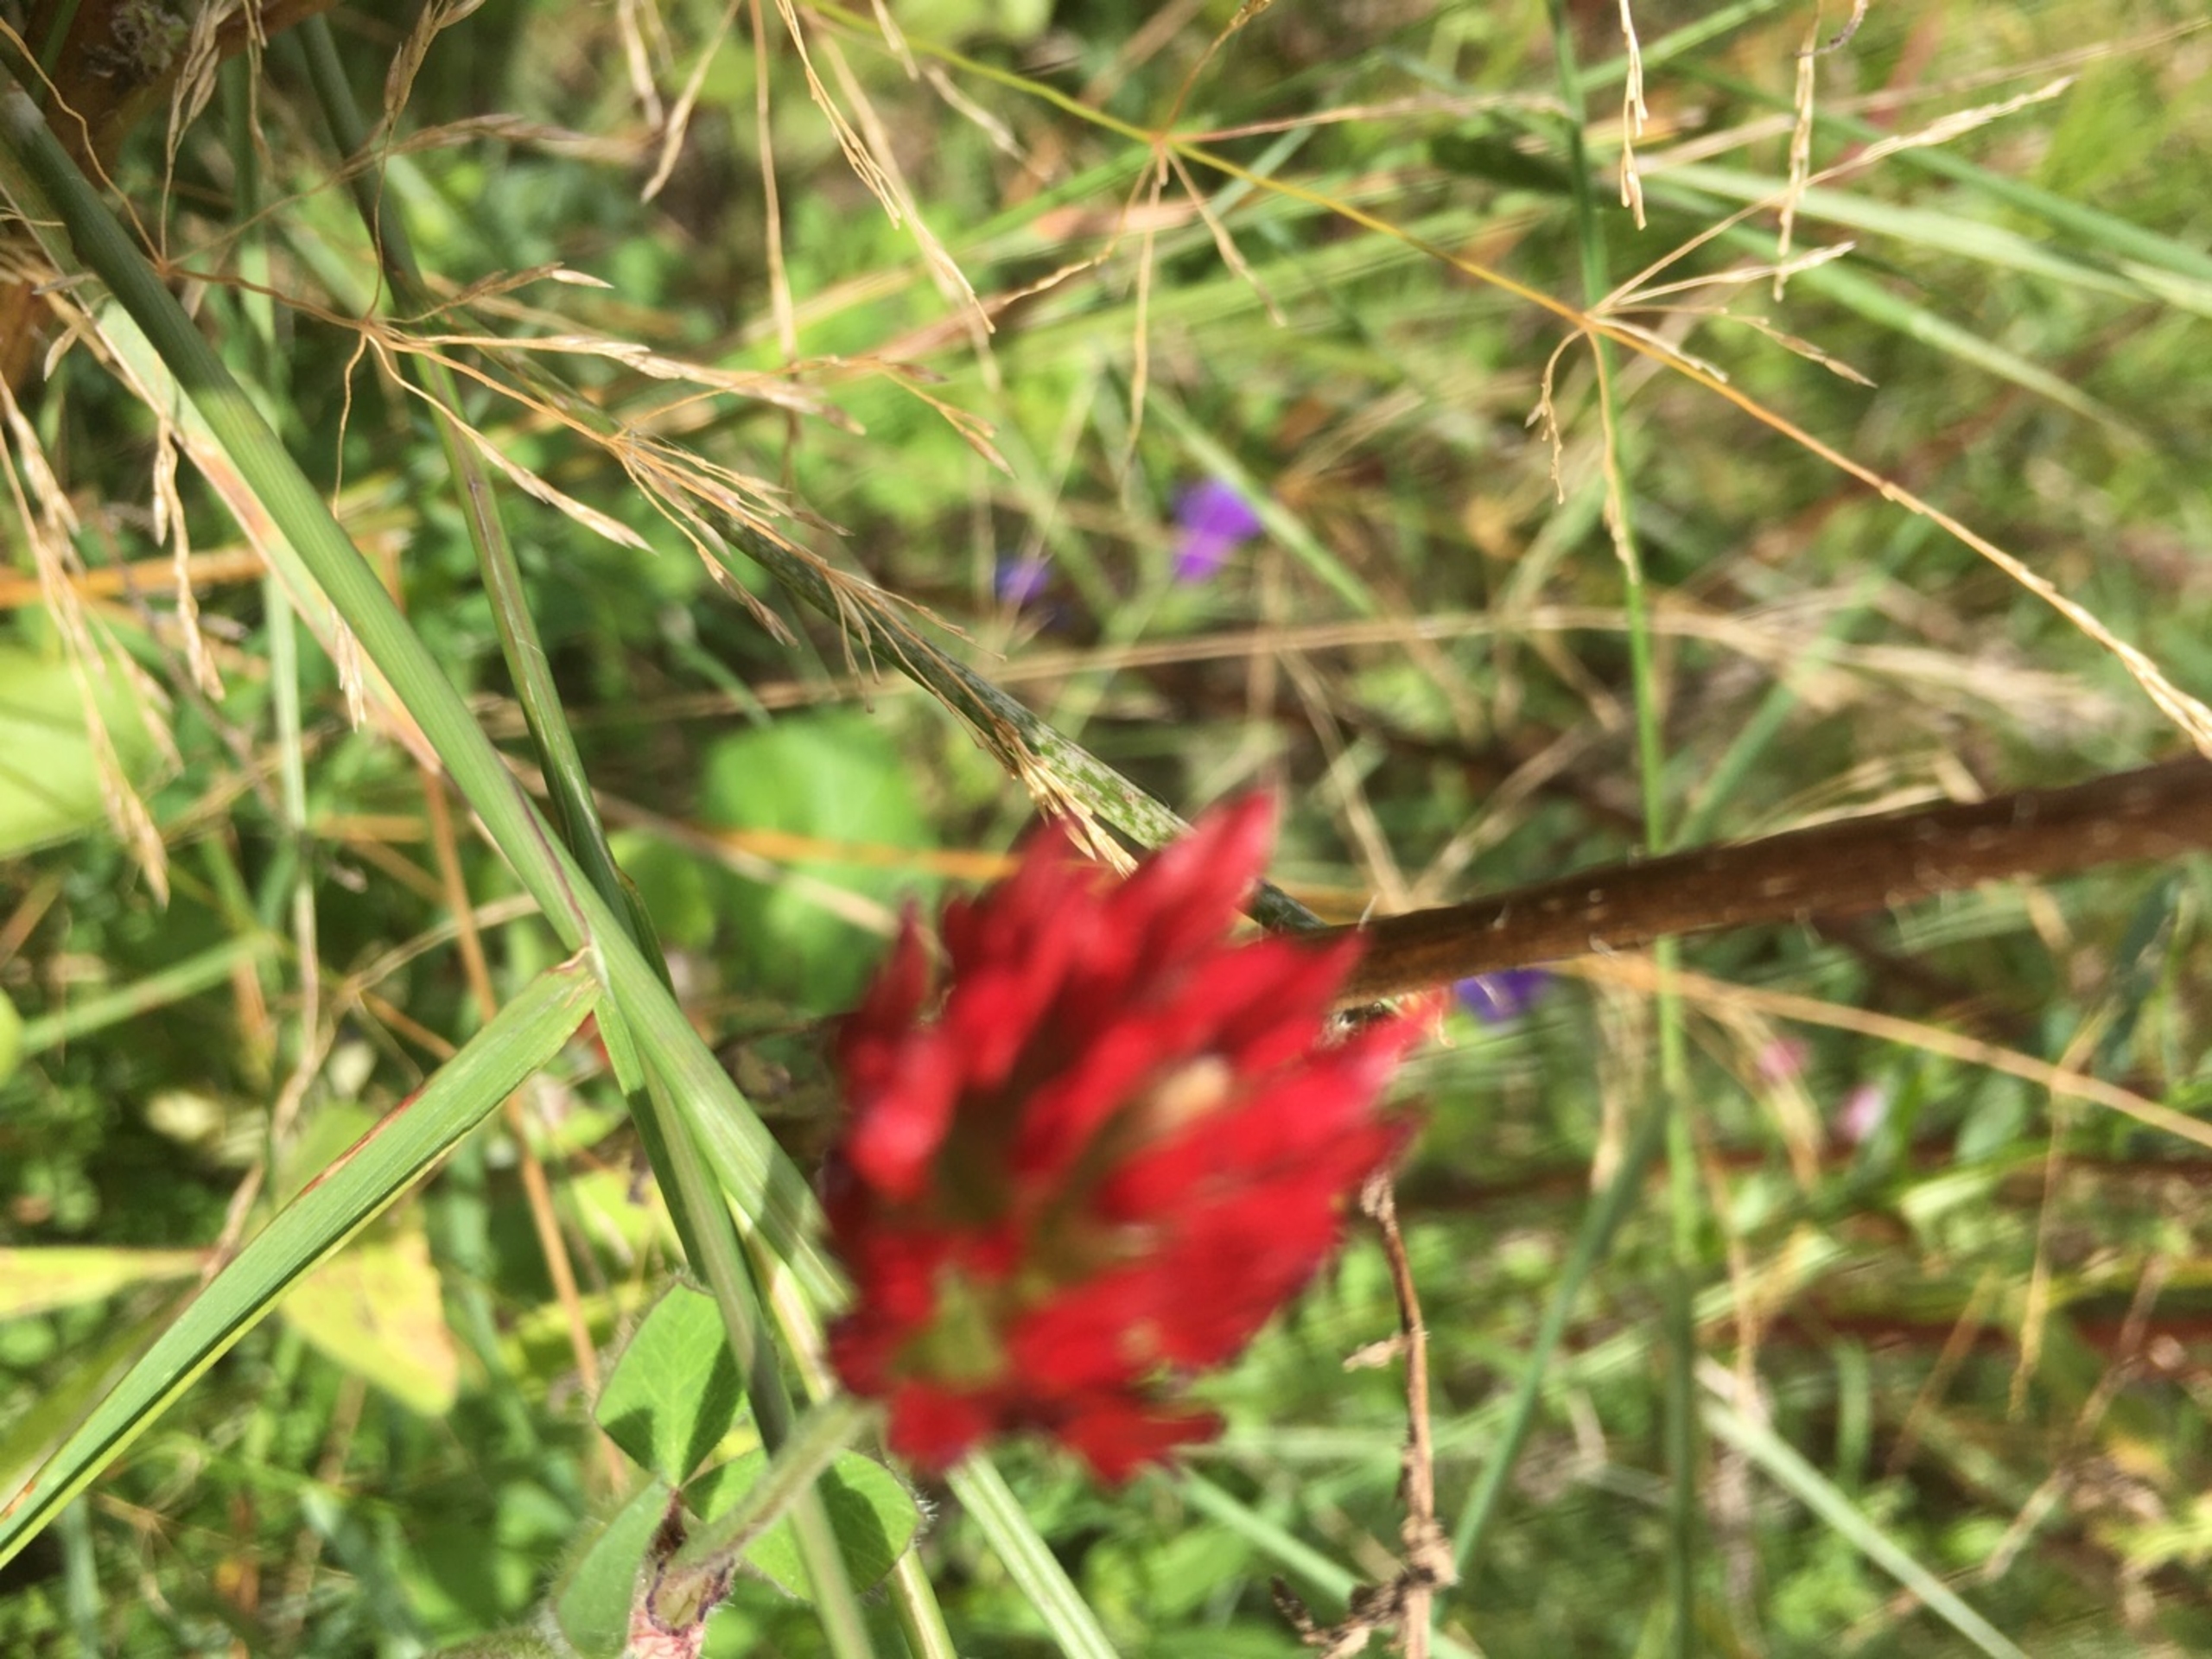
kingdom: Plantae
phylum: Tracheophyta
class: Magnoliopsida
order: Fabales
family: Fabaceae
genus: Trifolium
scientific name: Trifolium incarnatum
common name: Blod-kløver
